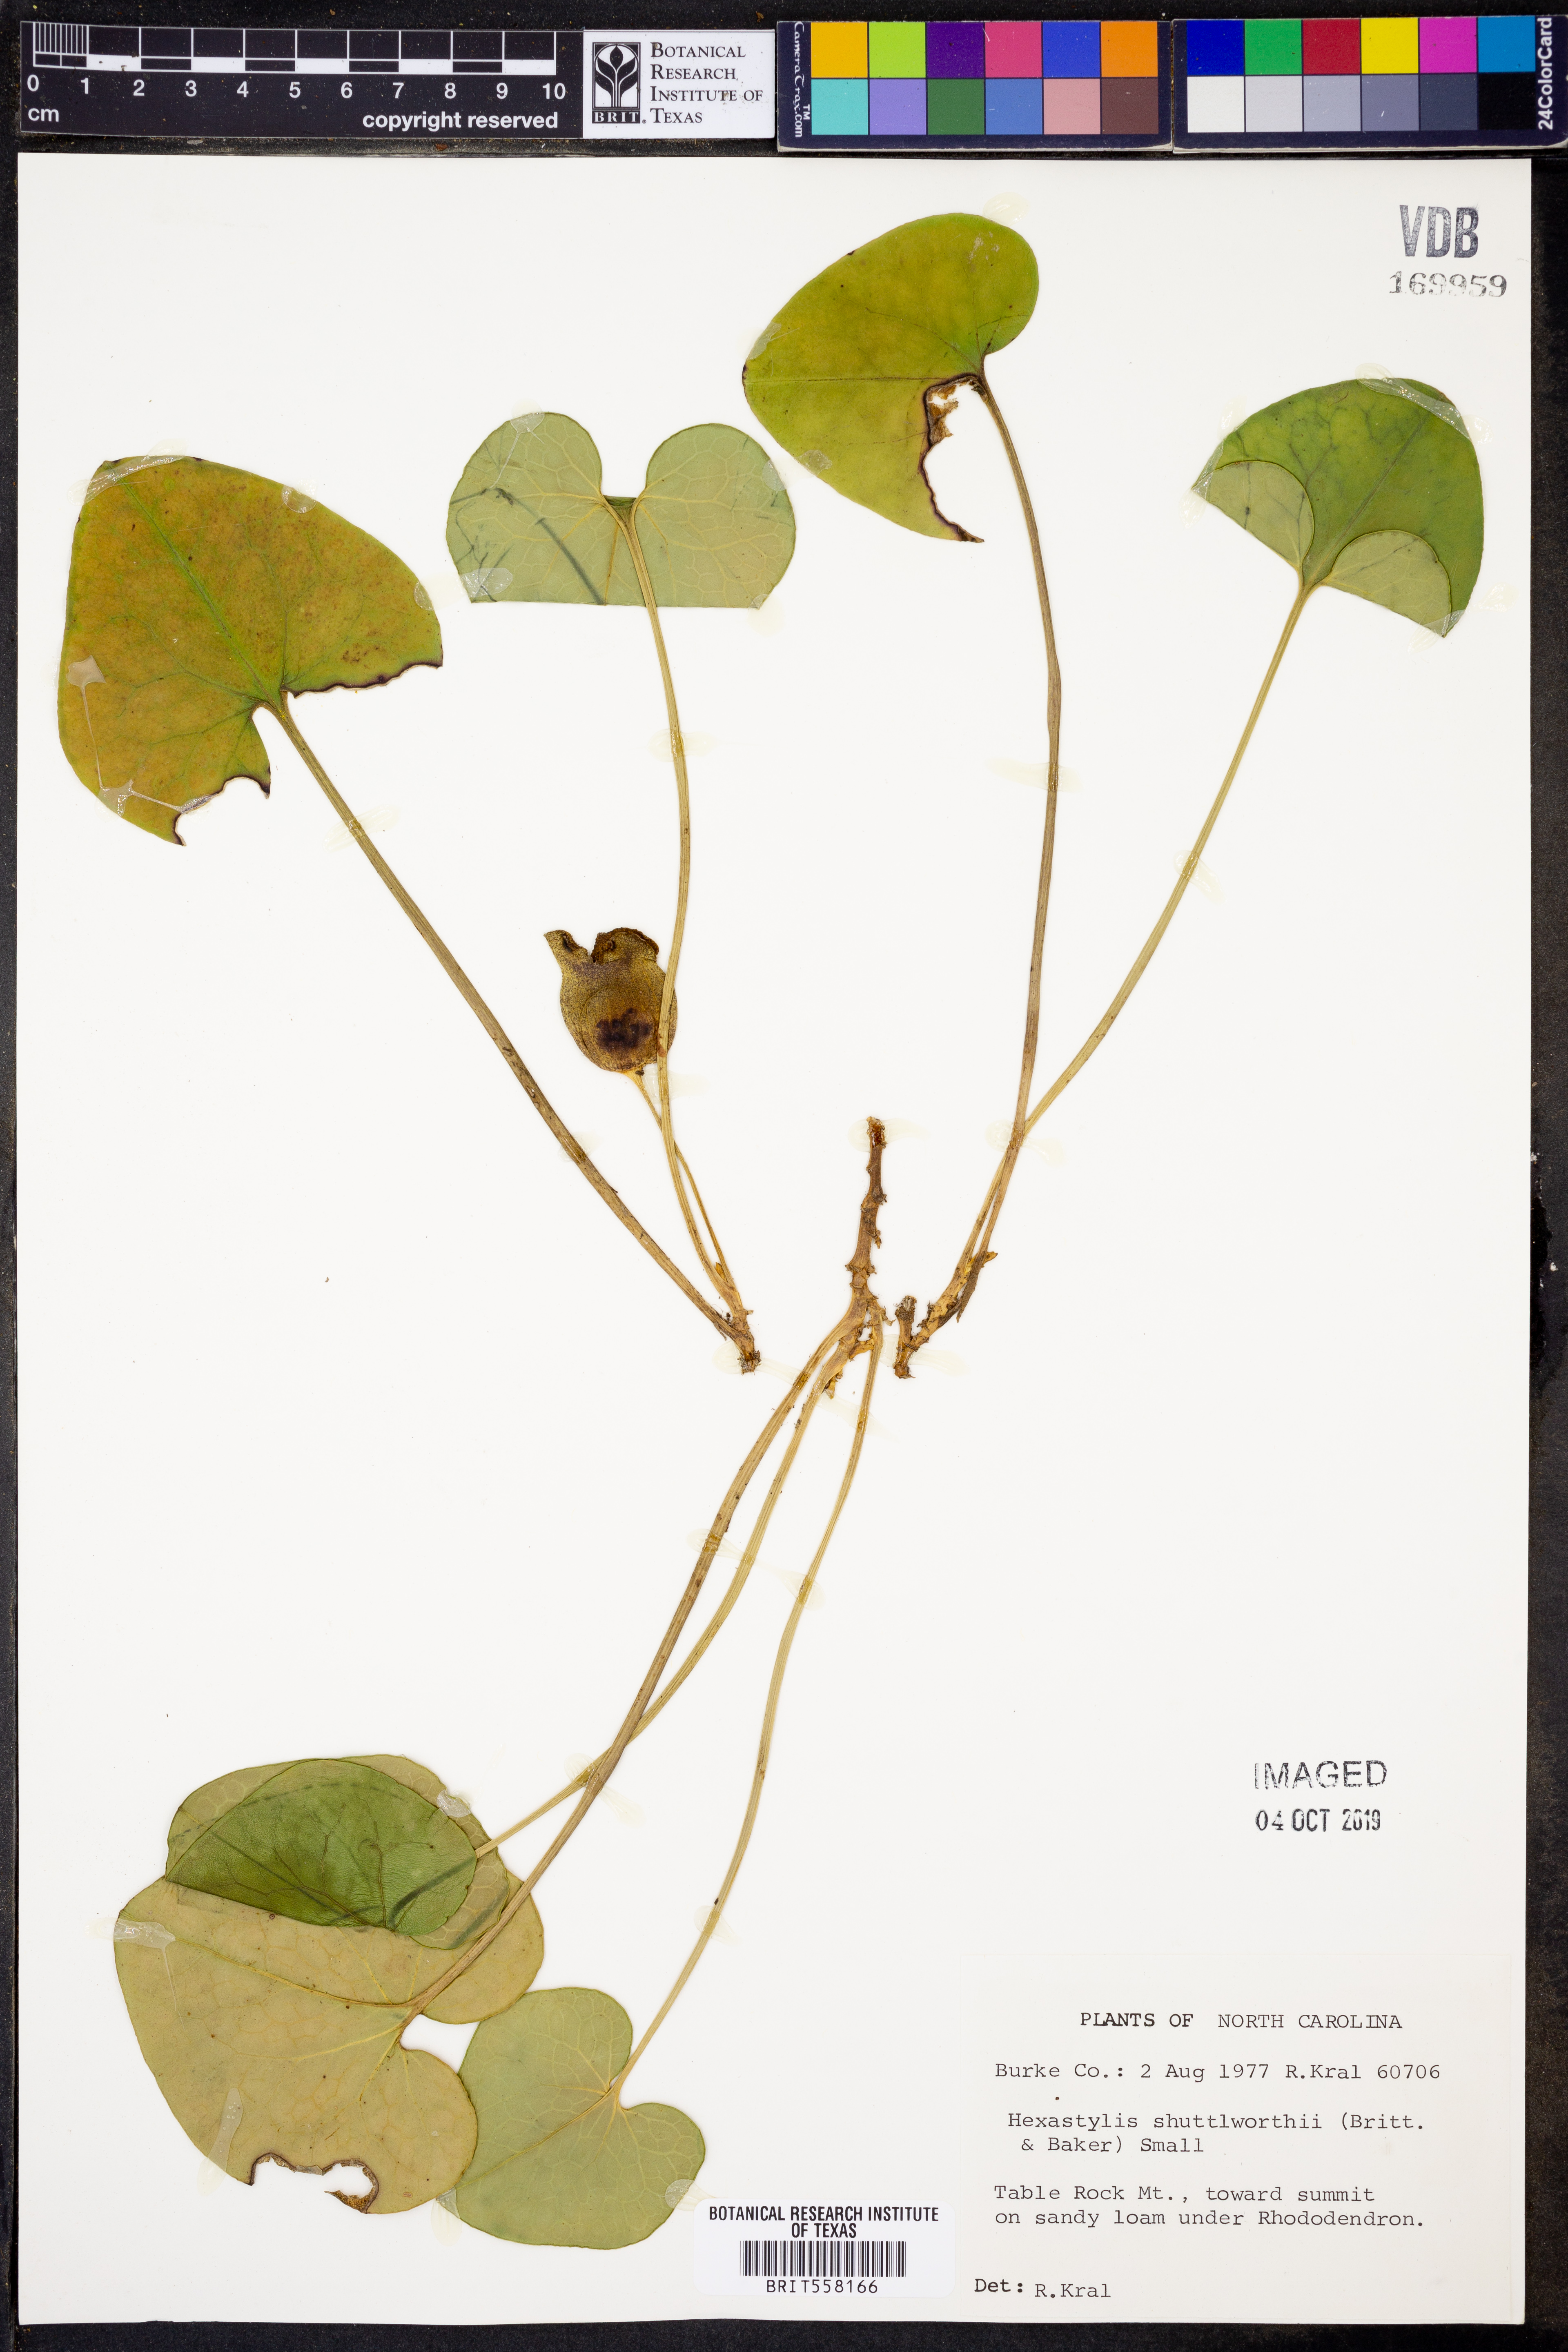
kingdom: Plantae
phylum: Tracheophyta
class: Magnoliopsida
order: Piperales
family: Aristolochiaceae
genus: Hexastylis
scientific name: Hexastylis shuttleworthii
